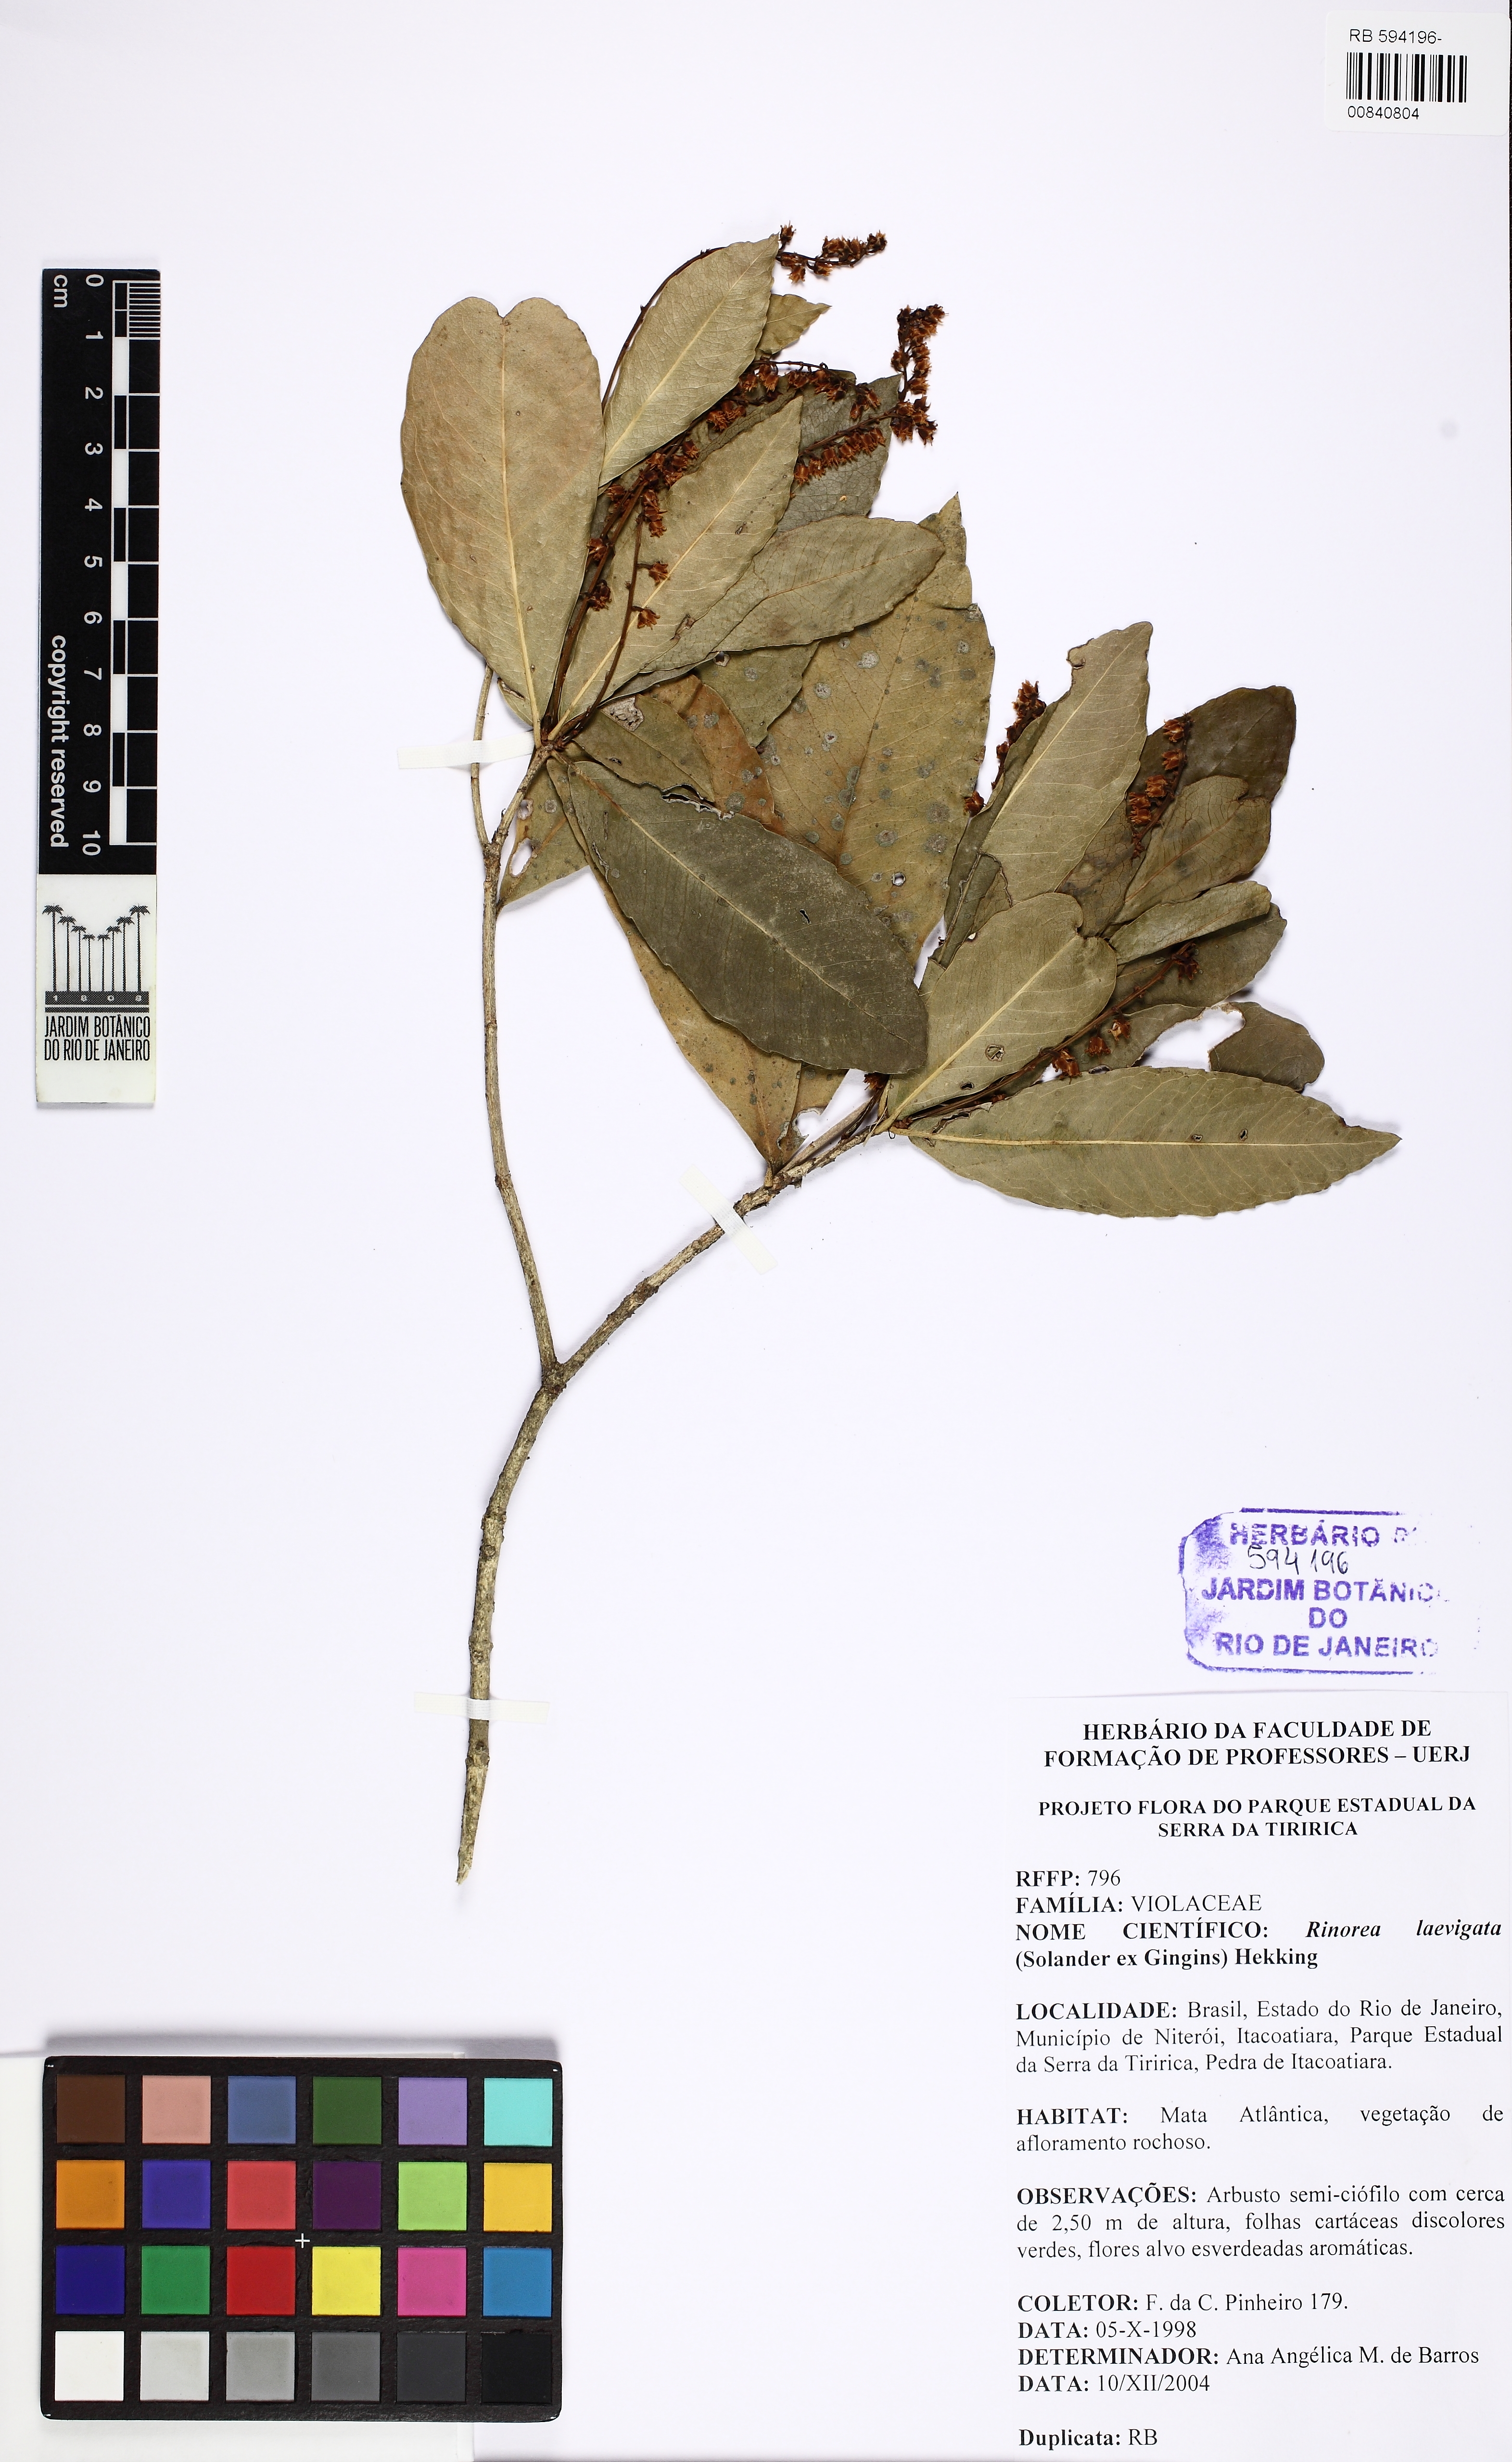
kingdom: Plantae
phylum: Tracheophyta
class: Magnoliopsida
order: Malpighiales
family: Violaceae
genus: Rinorea
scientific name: Rinorea laevigata
